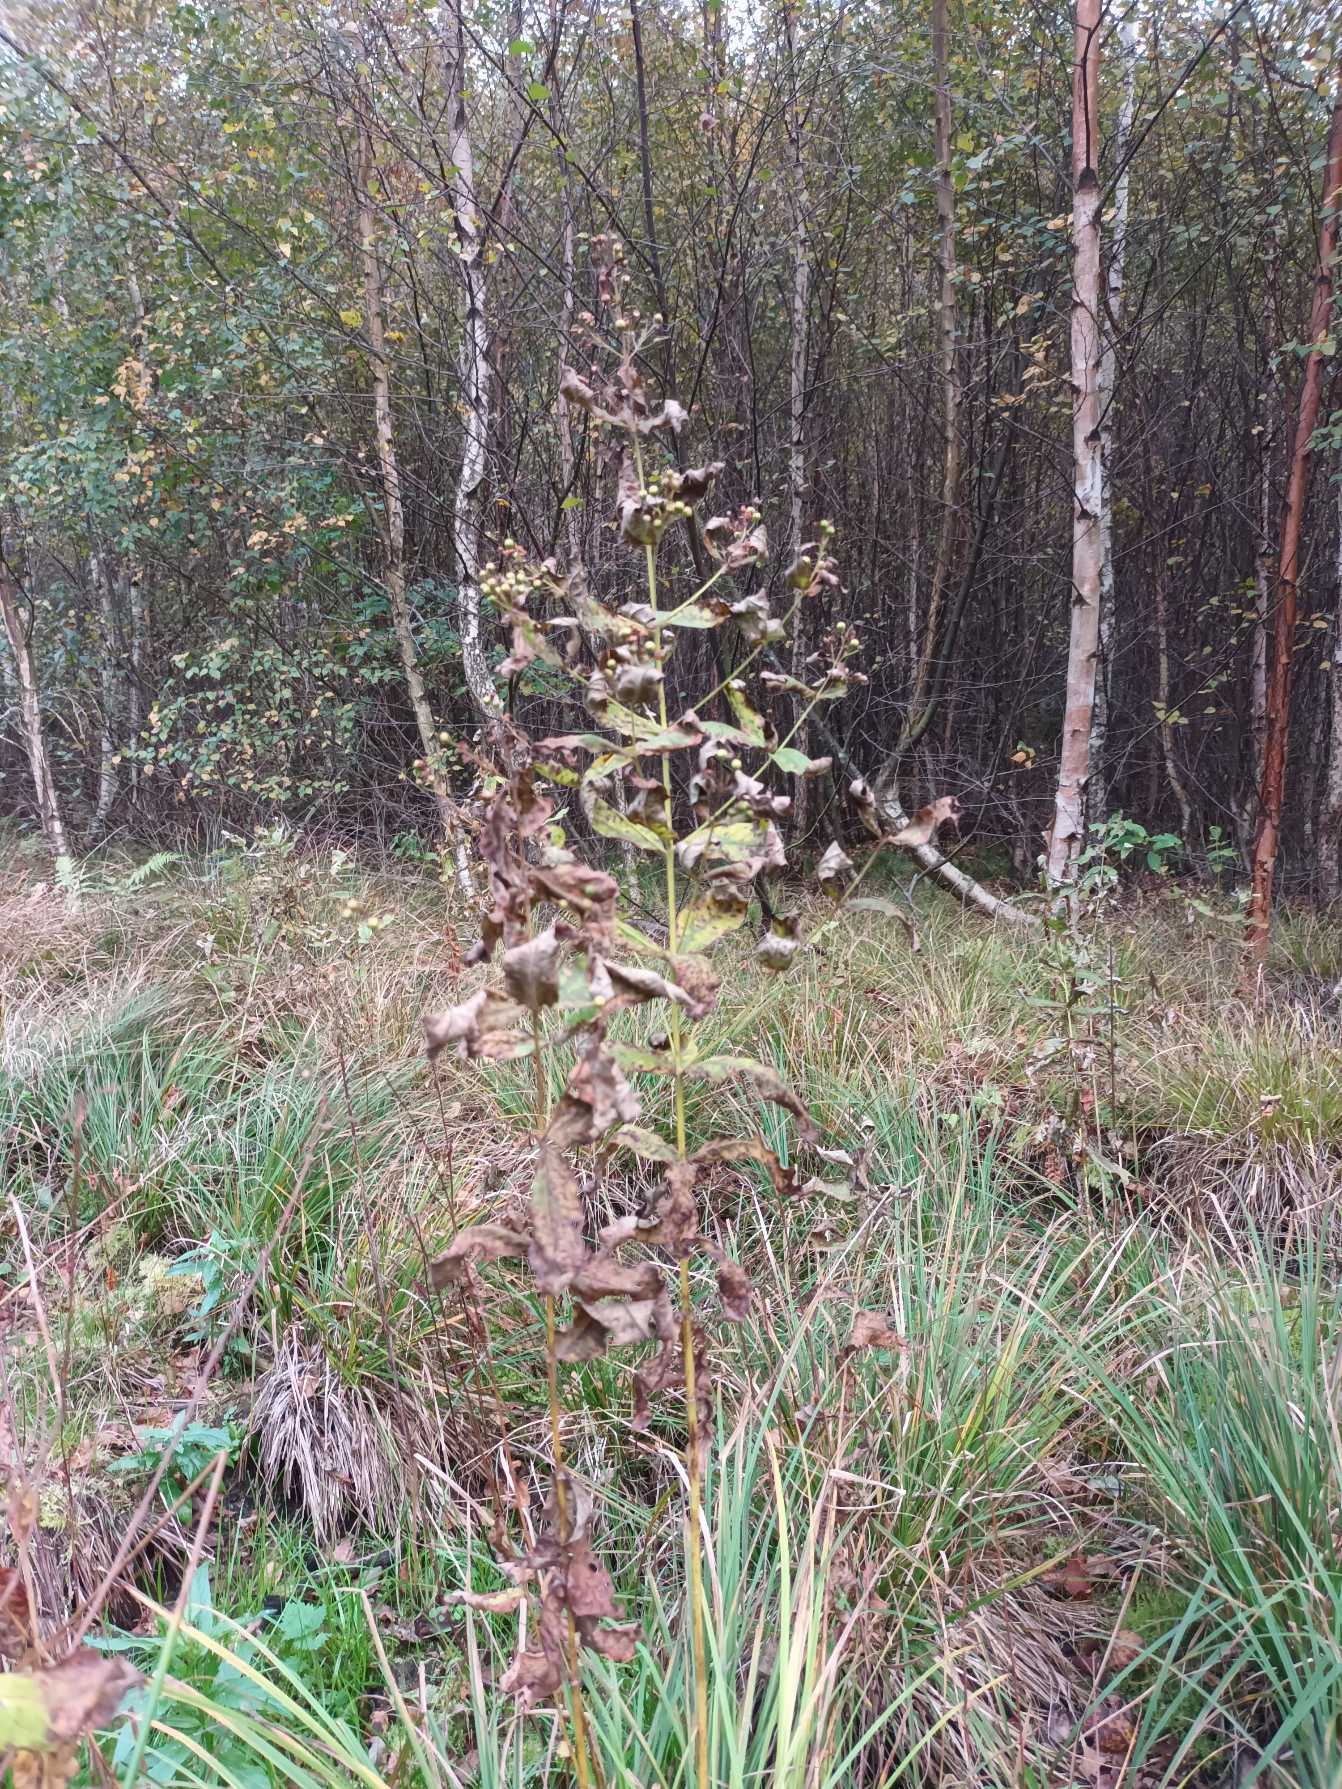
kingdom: Plantae
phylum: Tracheophyta
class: Magnoliopsida
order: Ericales
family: Primulaceae
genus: Lysimachia
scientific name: Lysimachia vulgaris
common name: Almindelig fredløs
